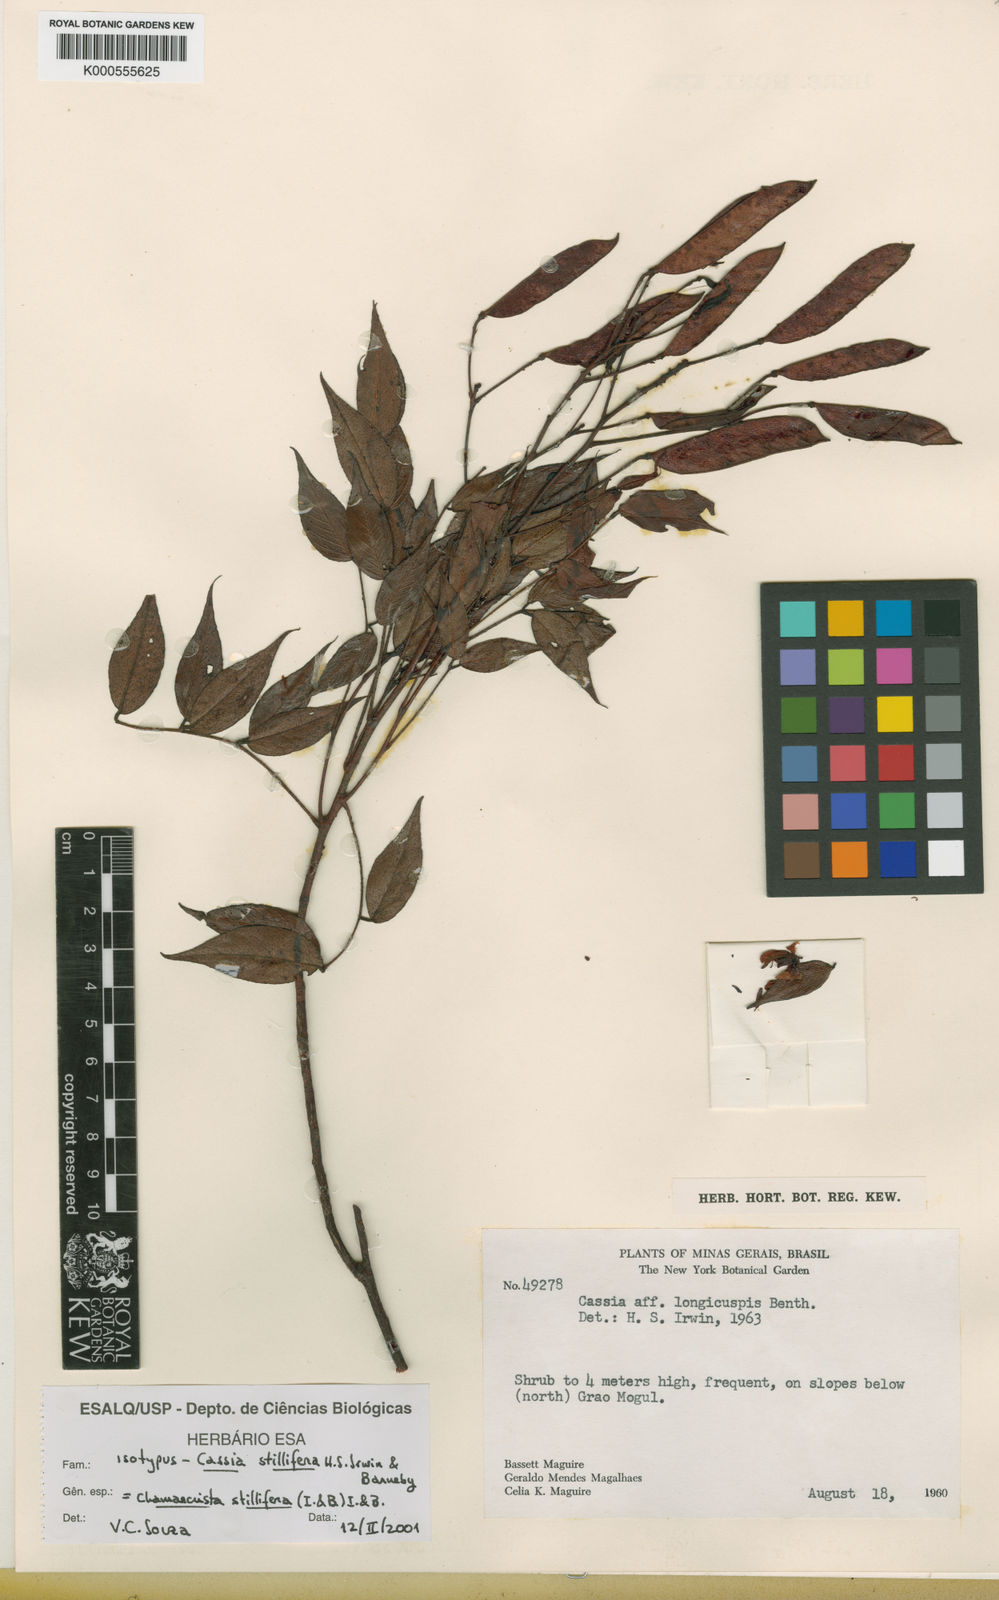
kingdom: Plantae
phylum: Tracheophyta
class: Magnoliopsida
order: Fabales
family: Fabaceae
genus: Chamaecrista
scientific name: Chamaecrista stillifera
